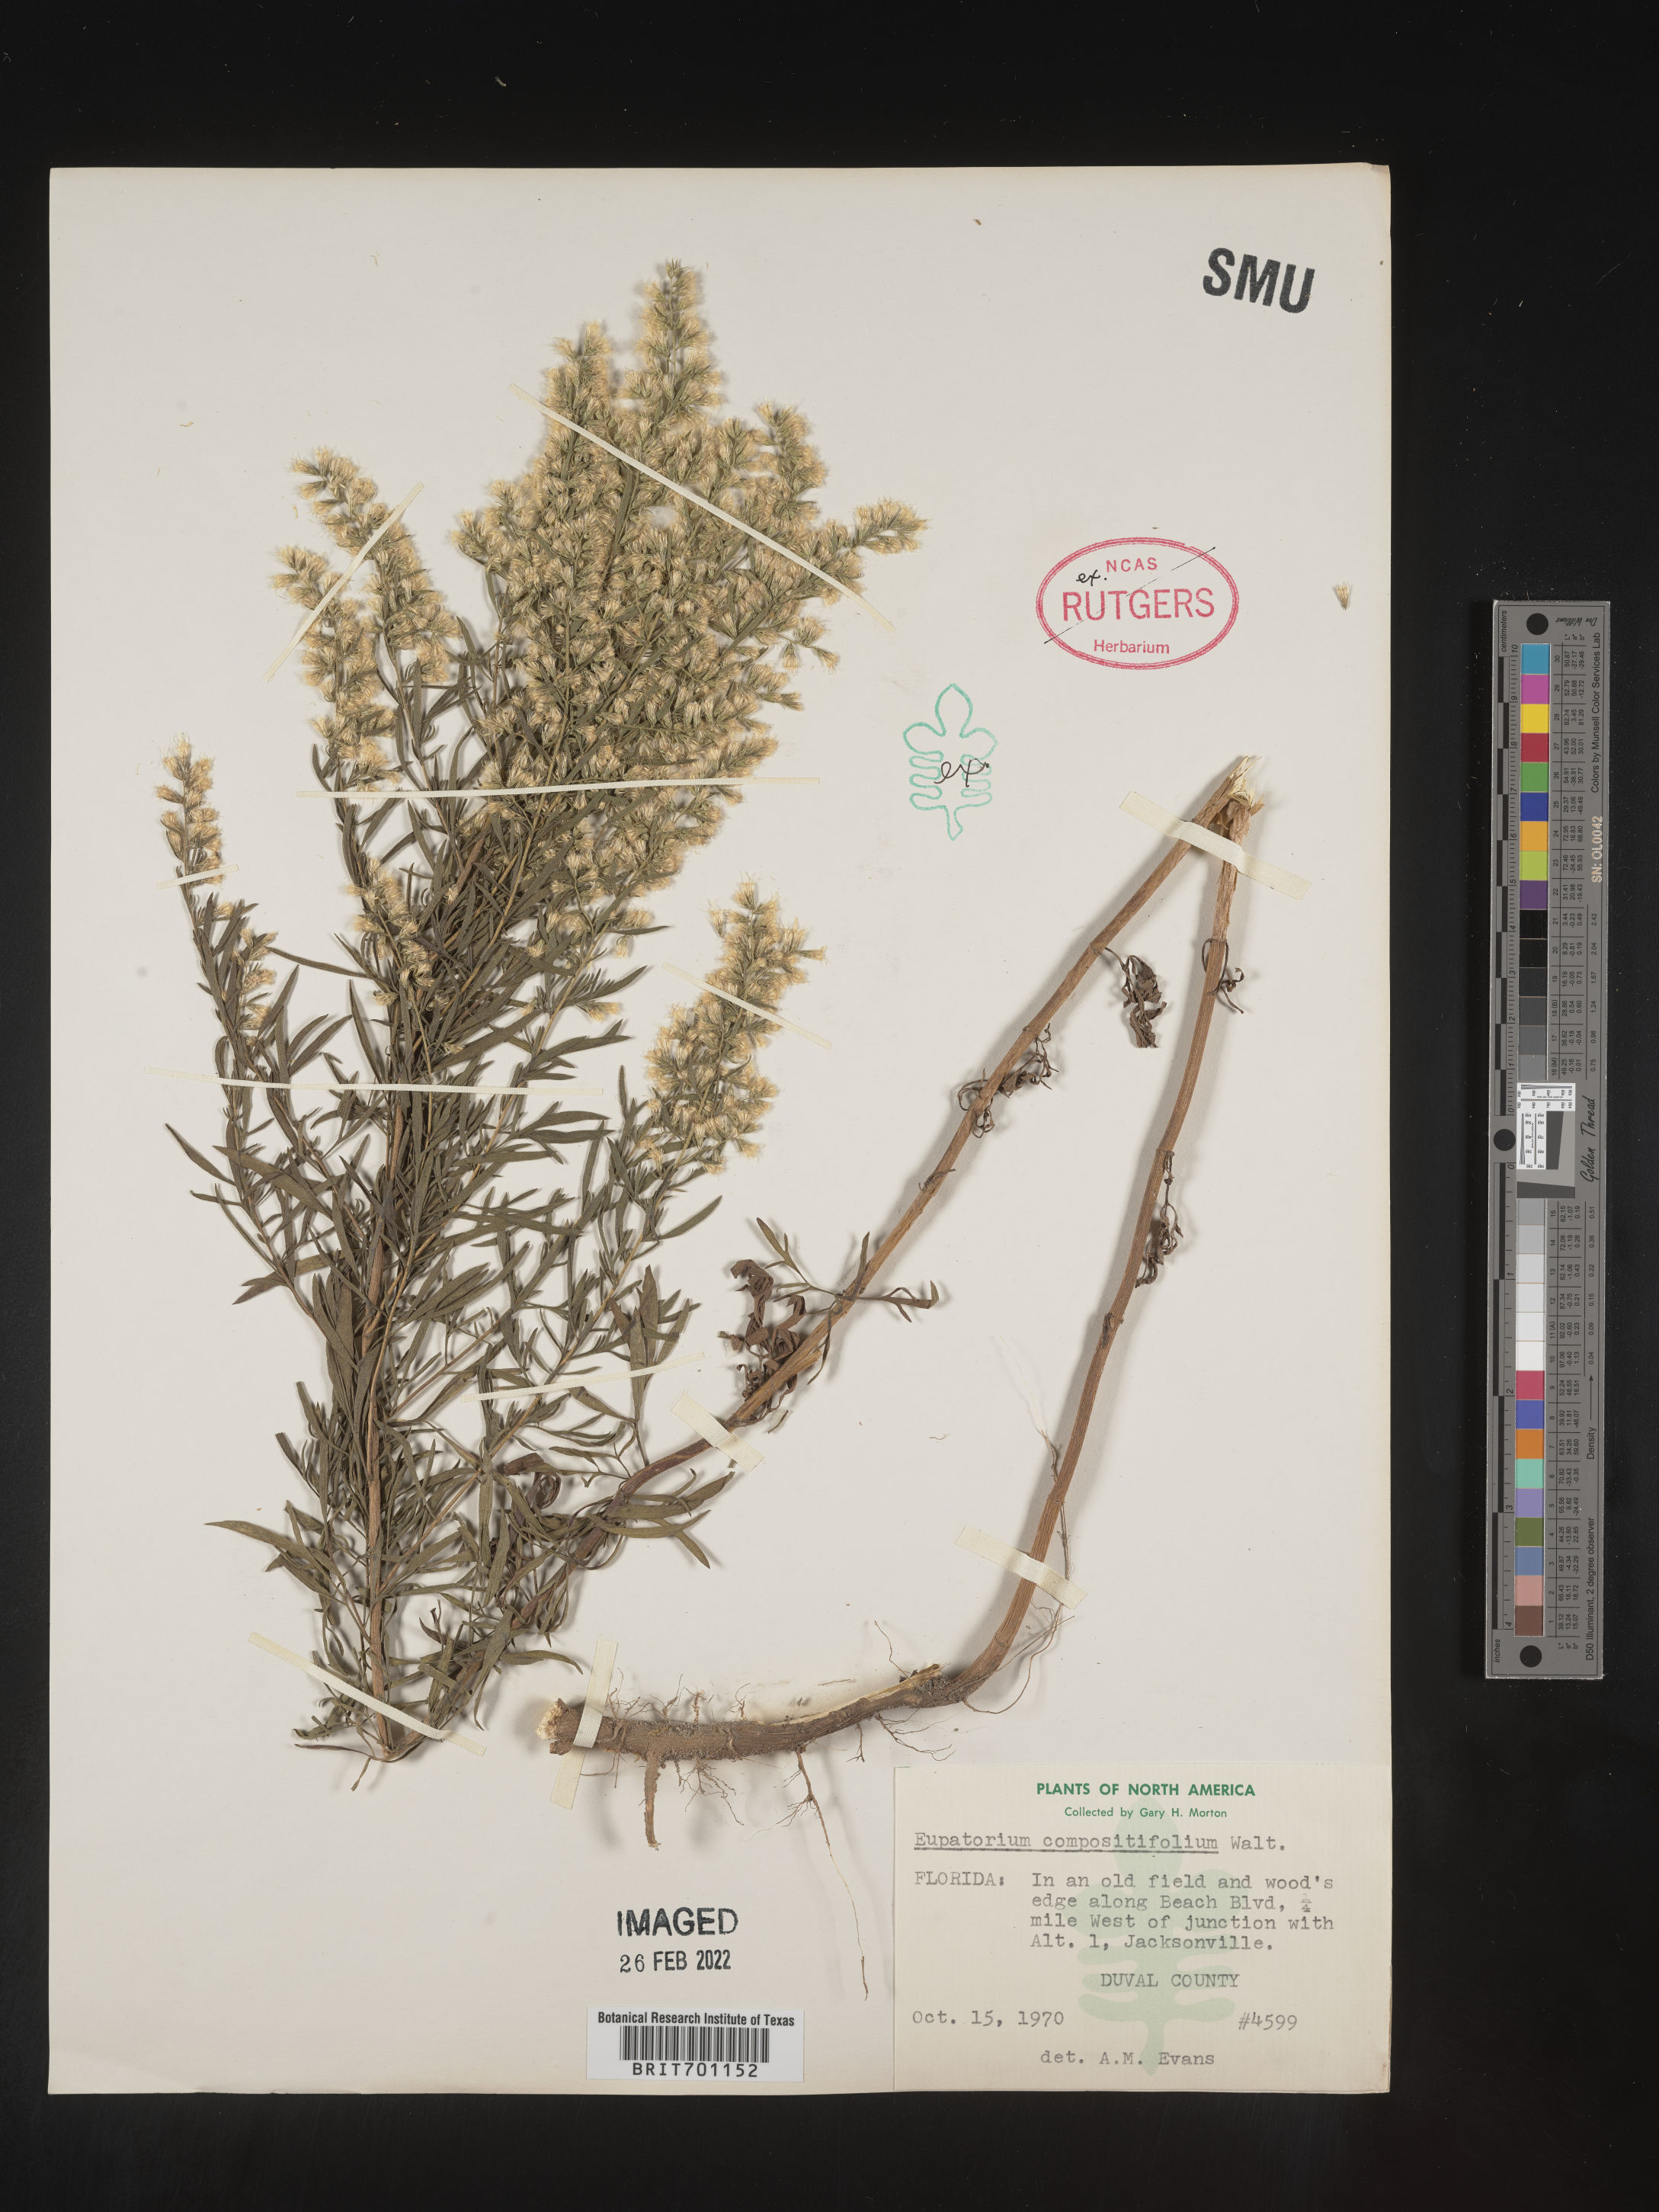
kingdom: Plantae
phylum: Tracheophyta
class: Magnoliopsida
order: Asterales
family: Asteraceae
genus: Eupatorium
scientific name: Eupatorium compositifolium
